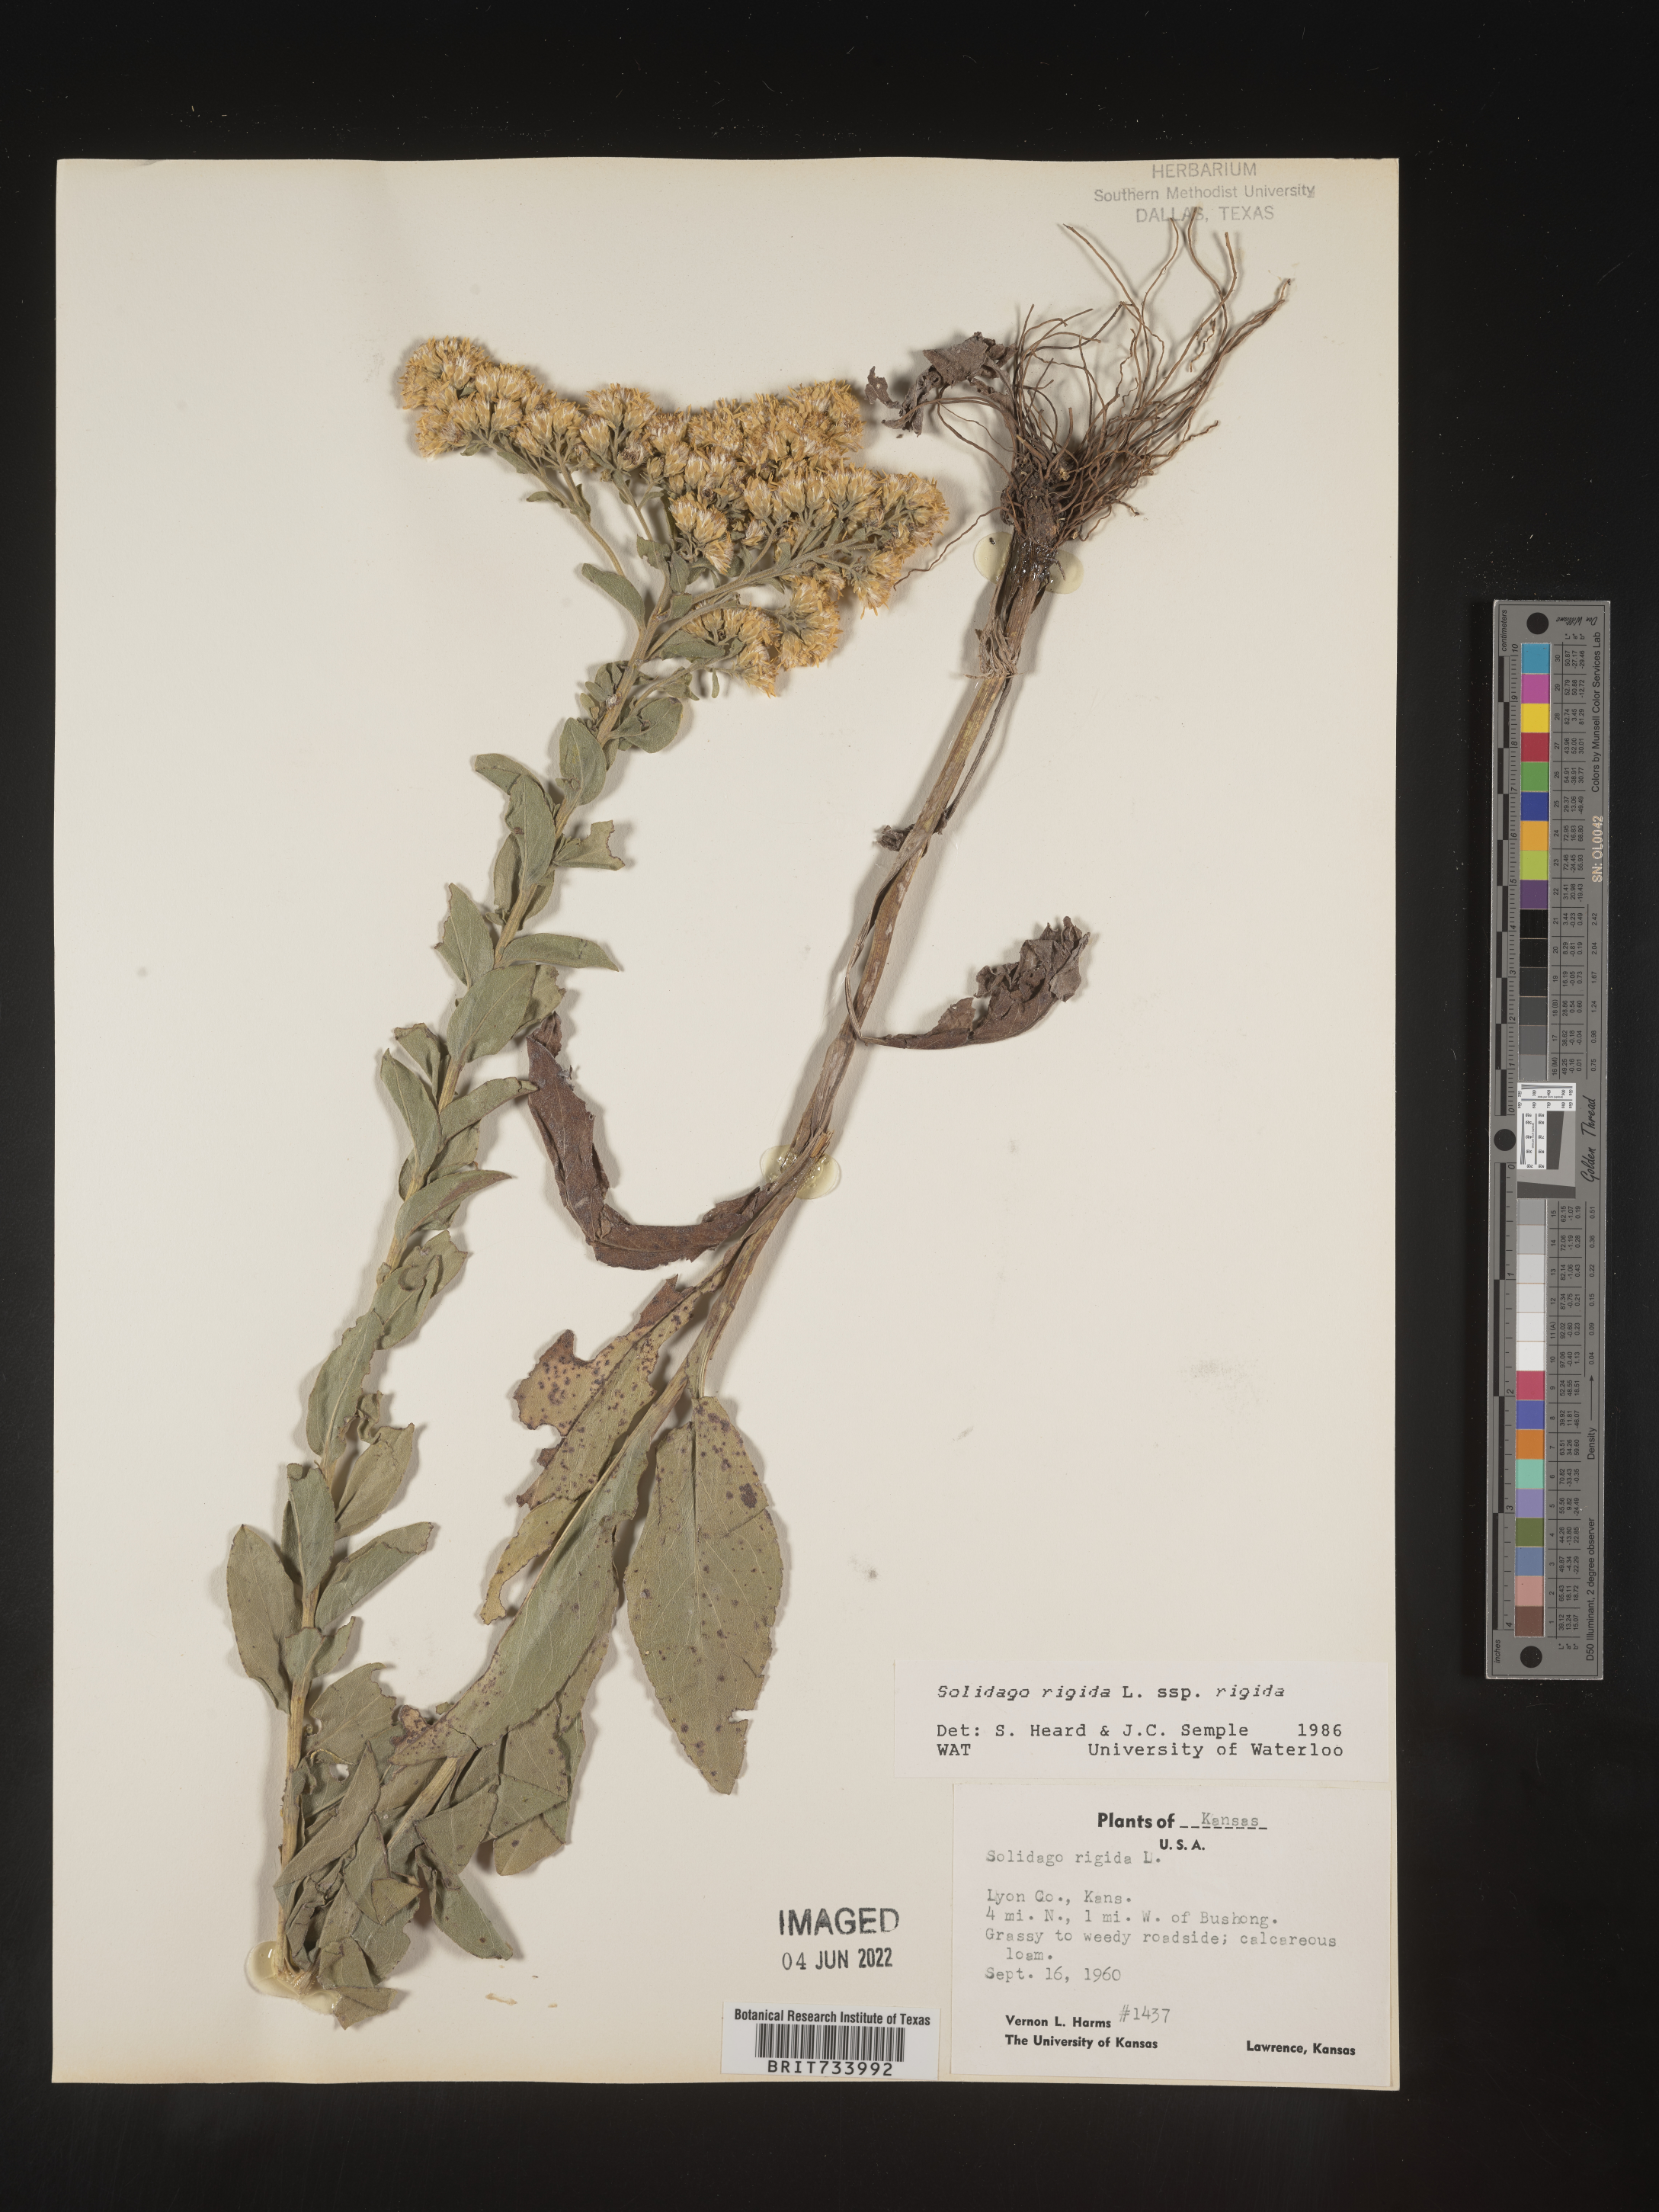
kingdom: Plantae
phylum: Tracheophyta
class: Magnoliopsida
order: Asterales
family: Asteraceae
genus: Solidago
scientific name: Solidago rigida
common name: Rigid goldenrod
